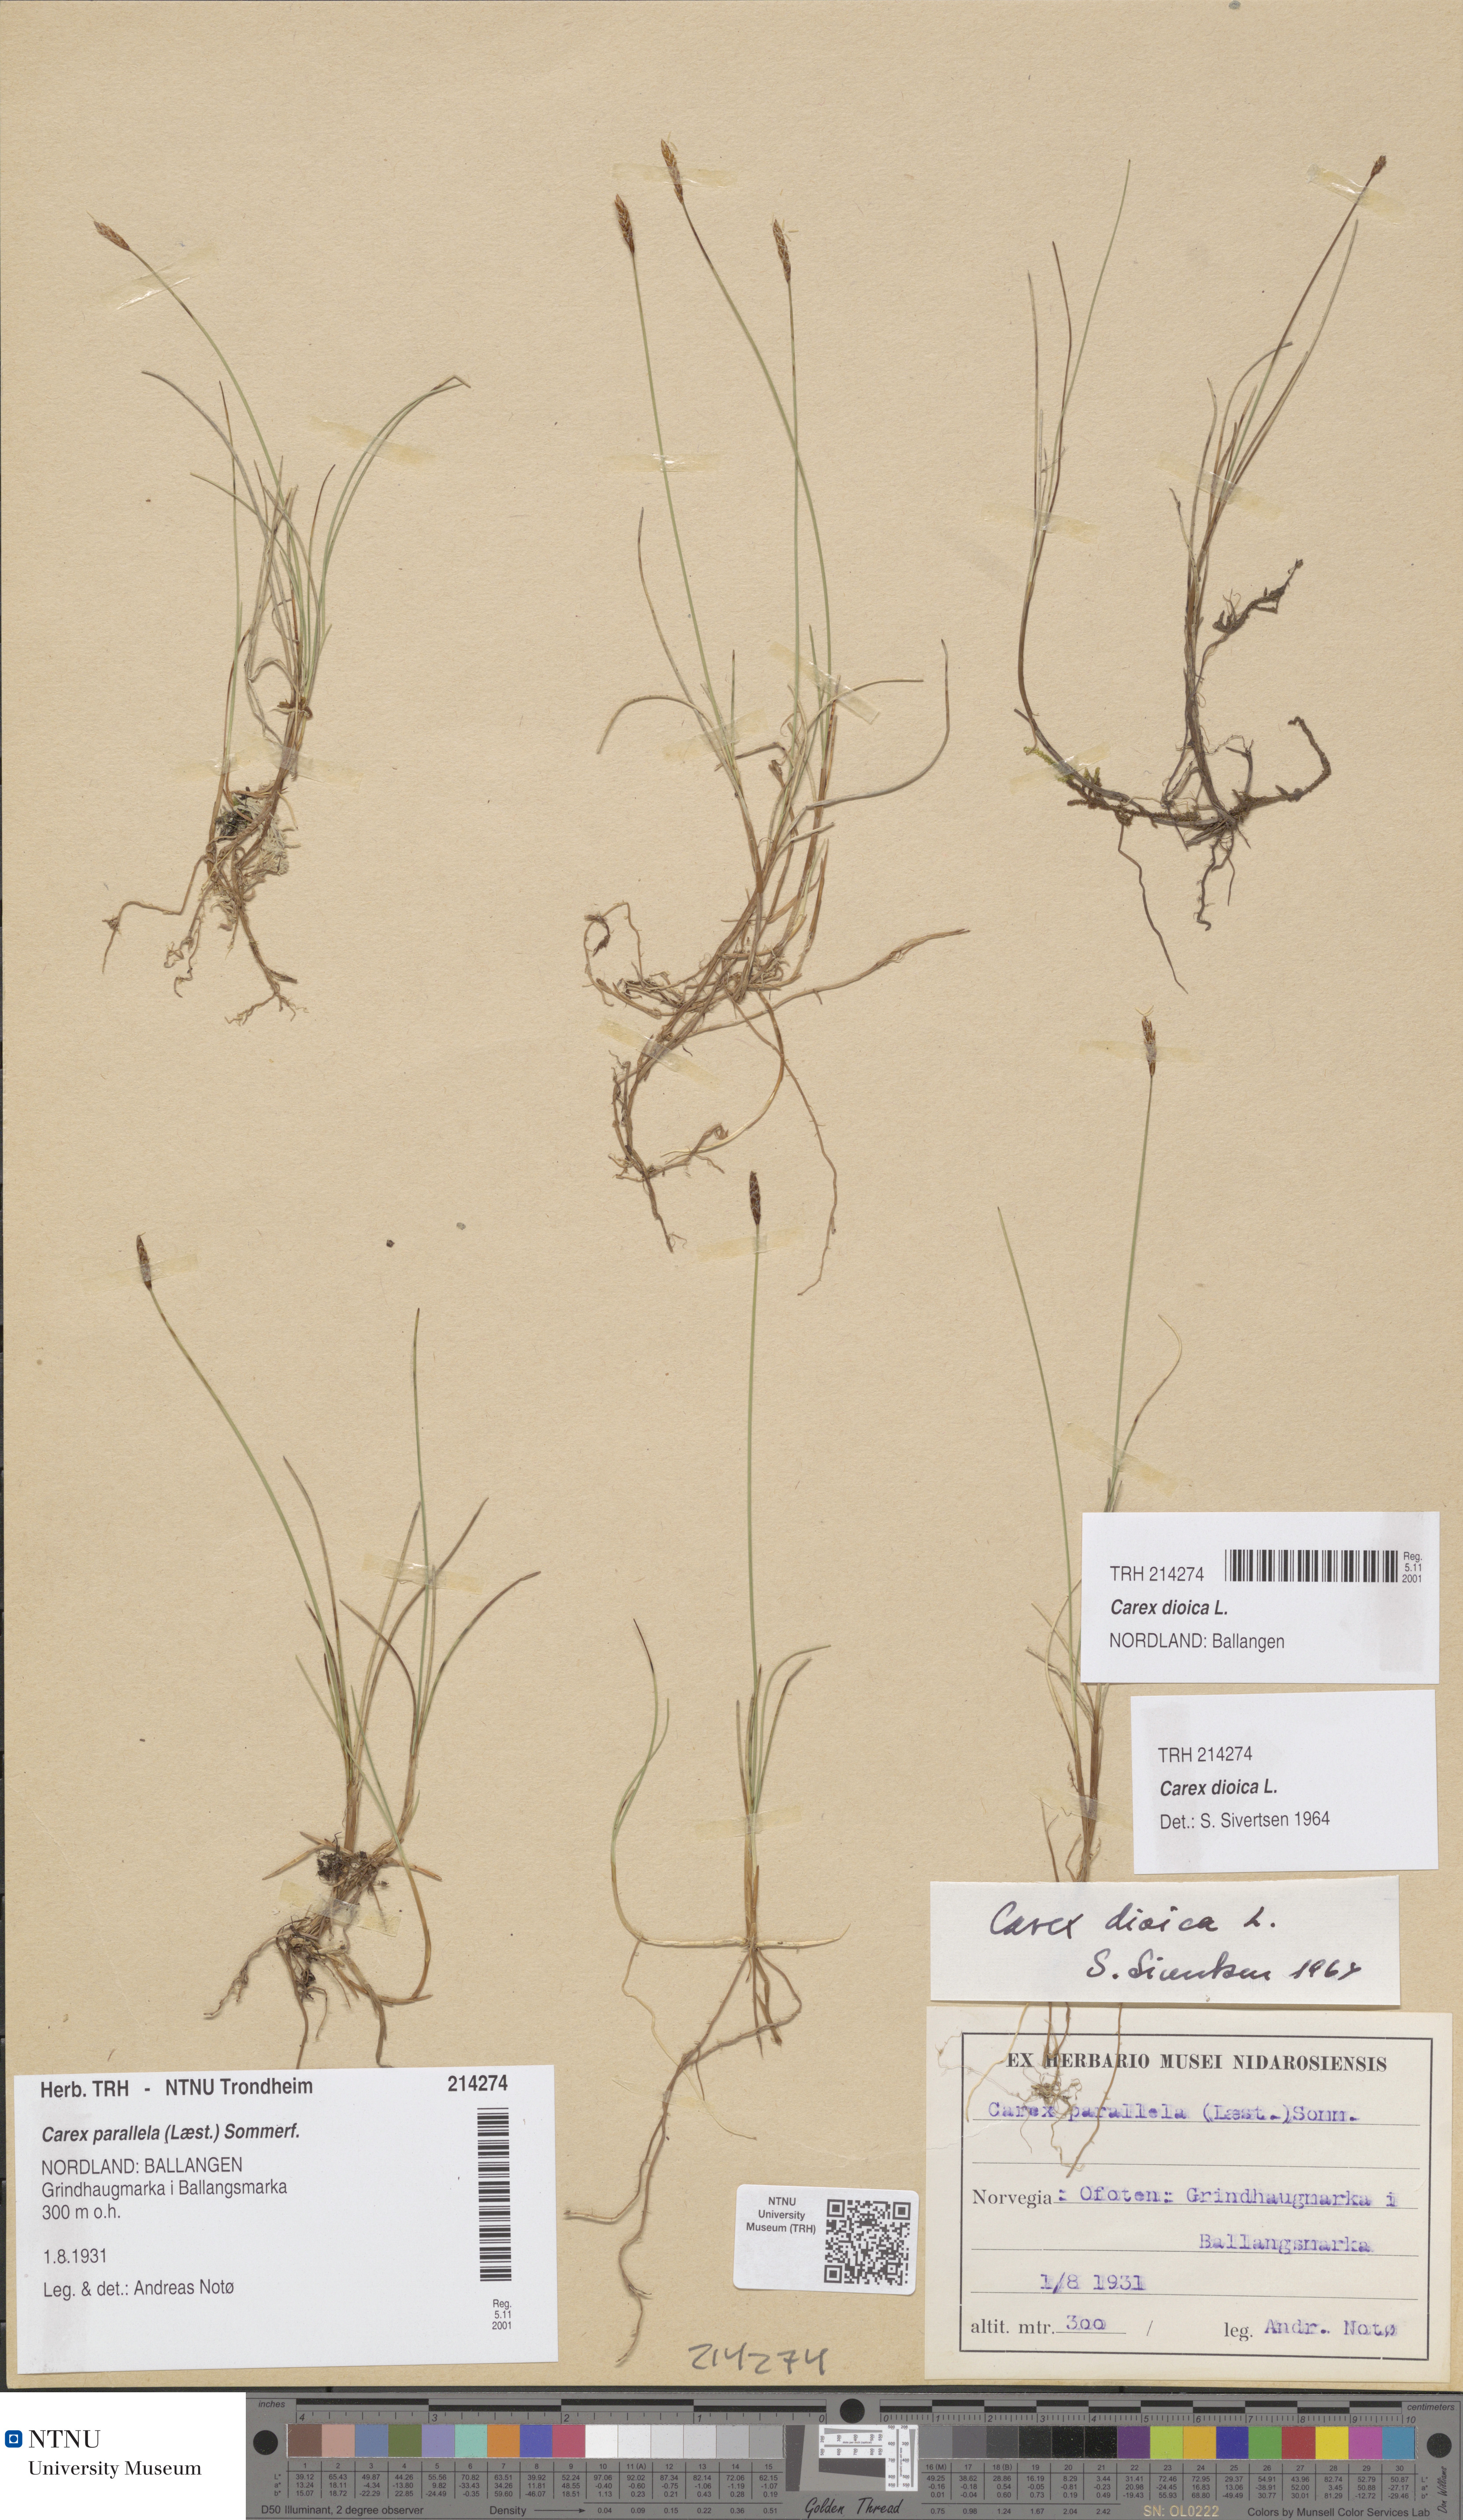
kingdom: Plantae
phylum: Tracheophyta
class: Liliopsida
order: Poales
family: Cyperaceae
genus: Carex
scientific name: Carex dioica
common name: Dioecious sedge
